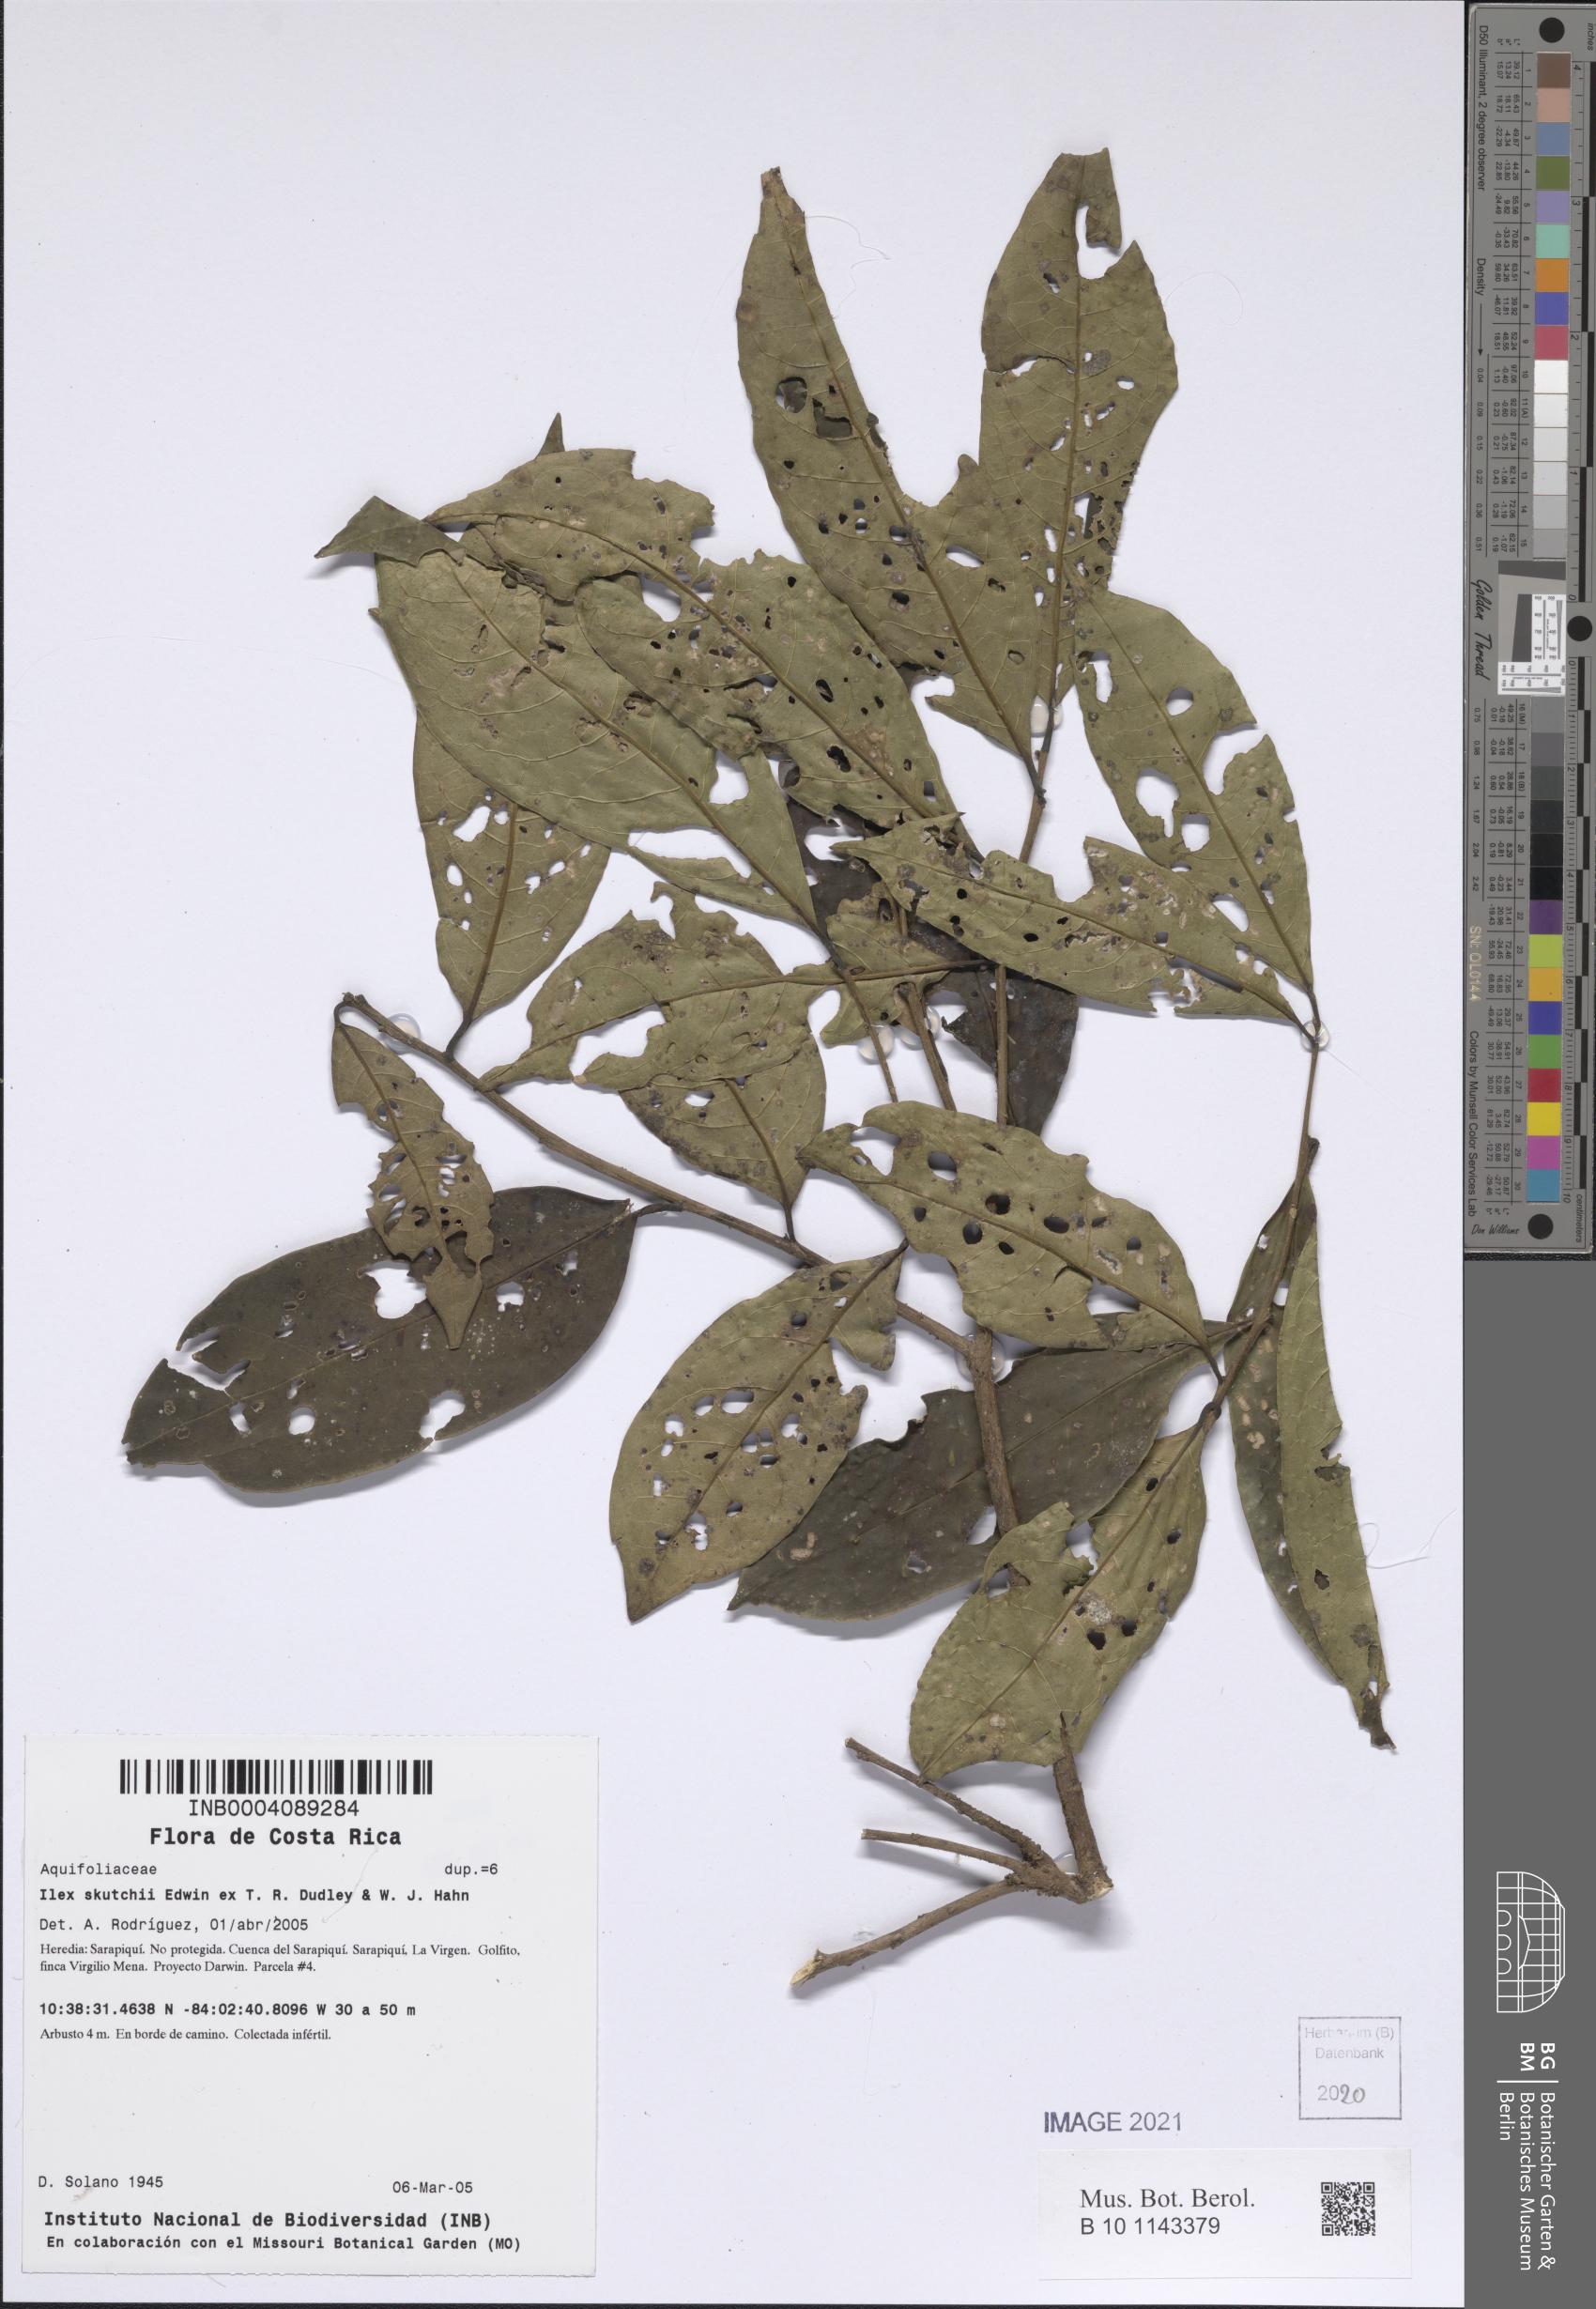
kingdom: Plantae
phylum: Tracheophyta
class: Magnoliopsida
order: Aquifoliales
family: Aquifoliaceae
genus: Ilex
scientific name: Ilex skutchii
